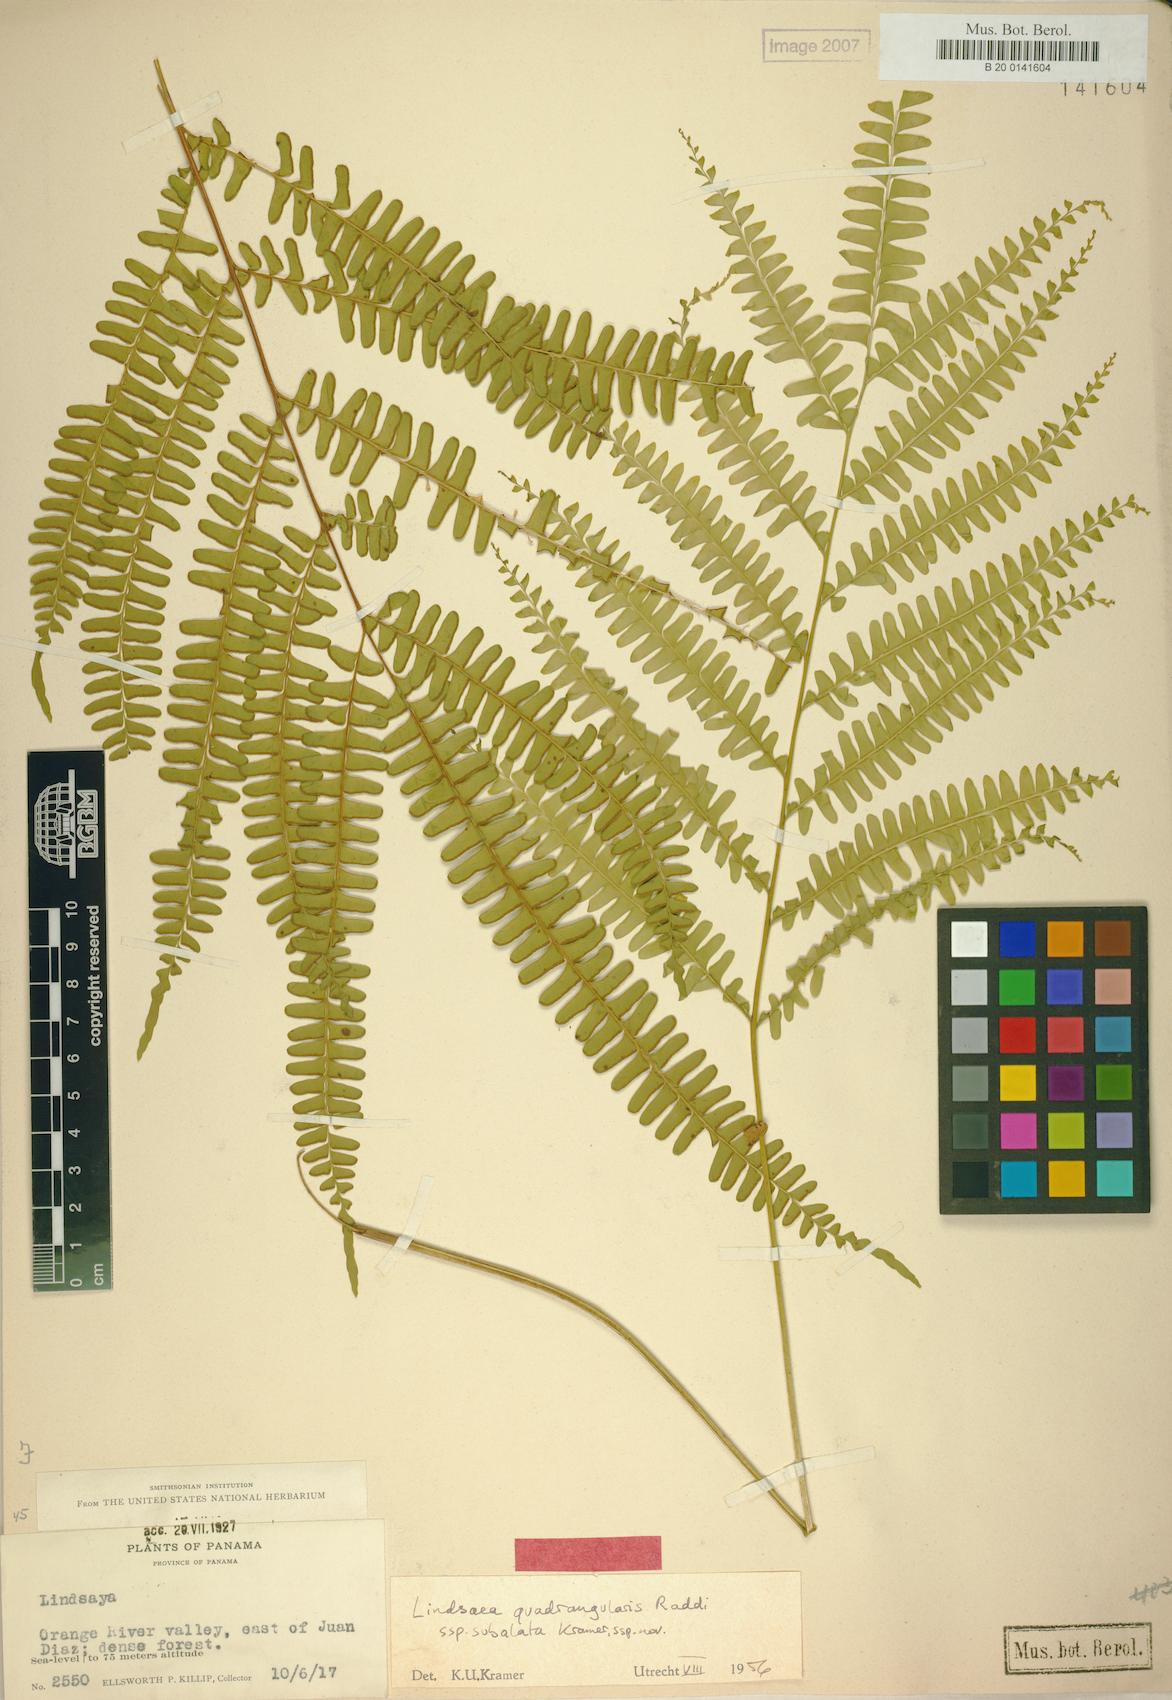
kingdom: Plantae
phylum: Tracheophyta
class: Polypodiopsida
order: Polypodiales
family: Lindsaeaceae
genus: Lindsaea
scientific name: Lindsaea subalata
